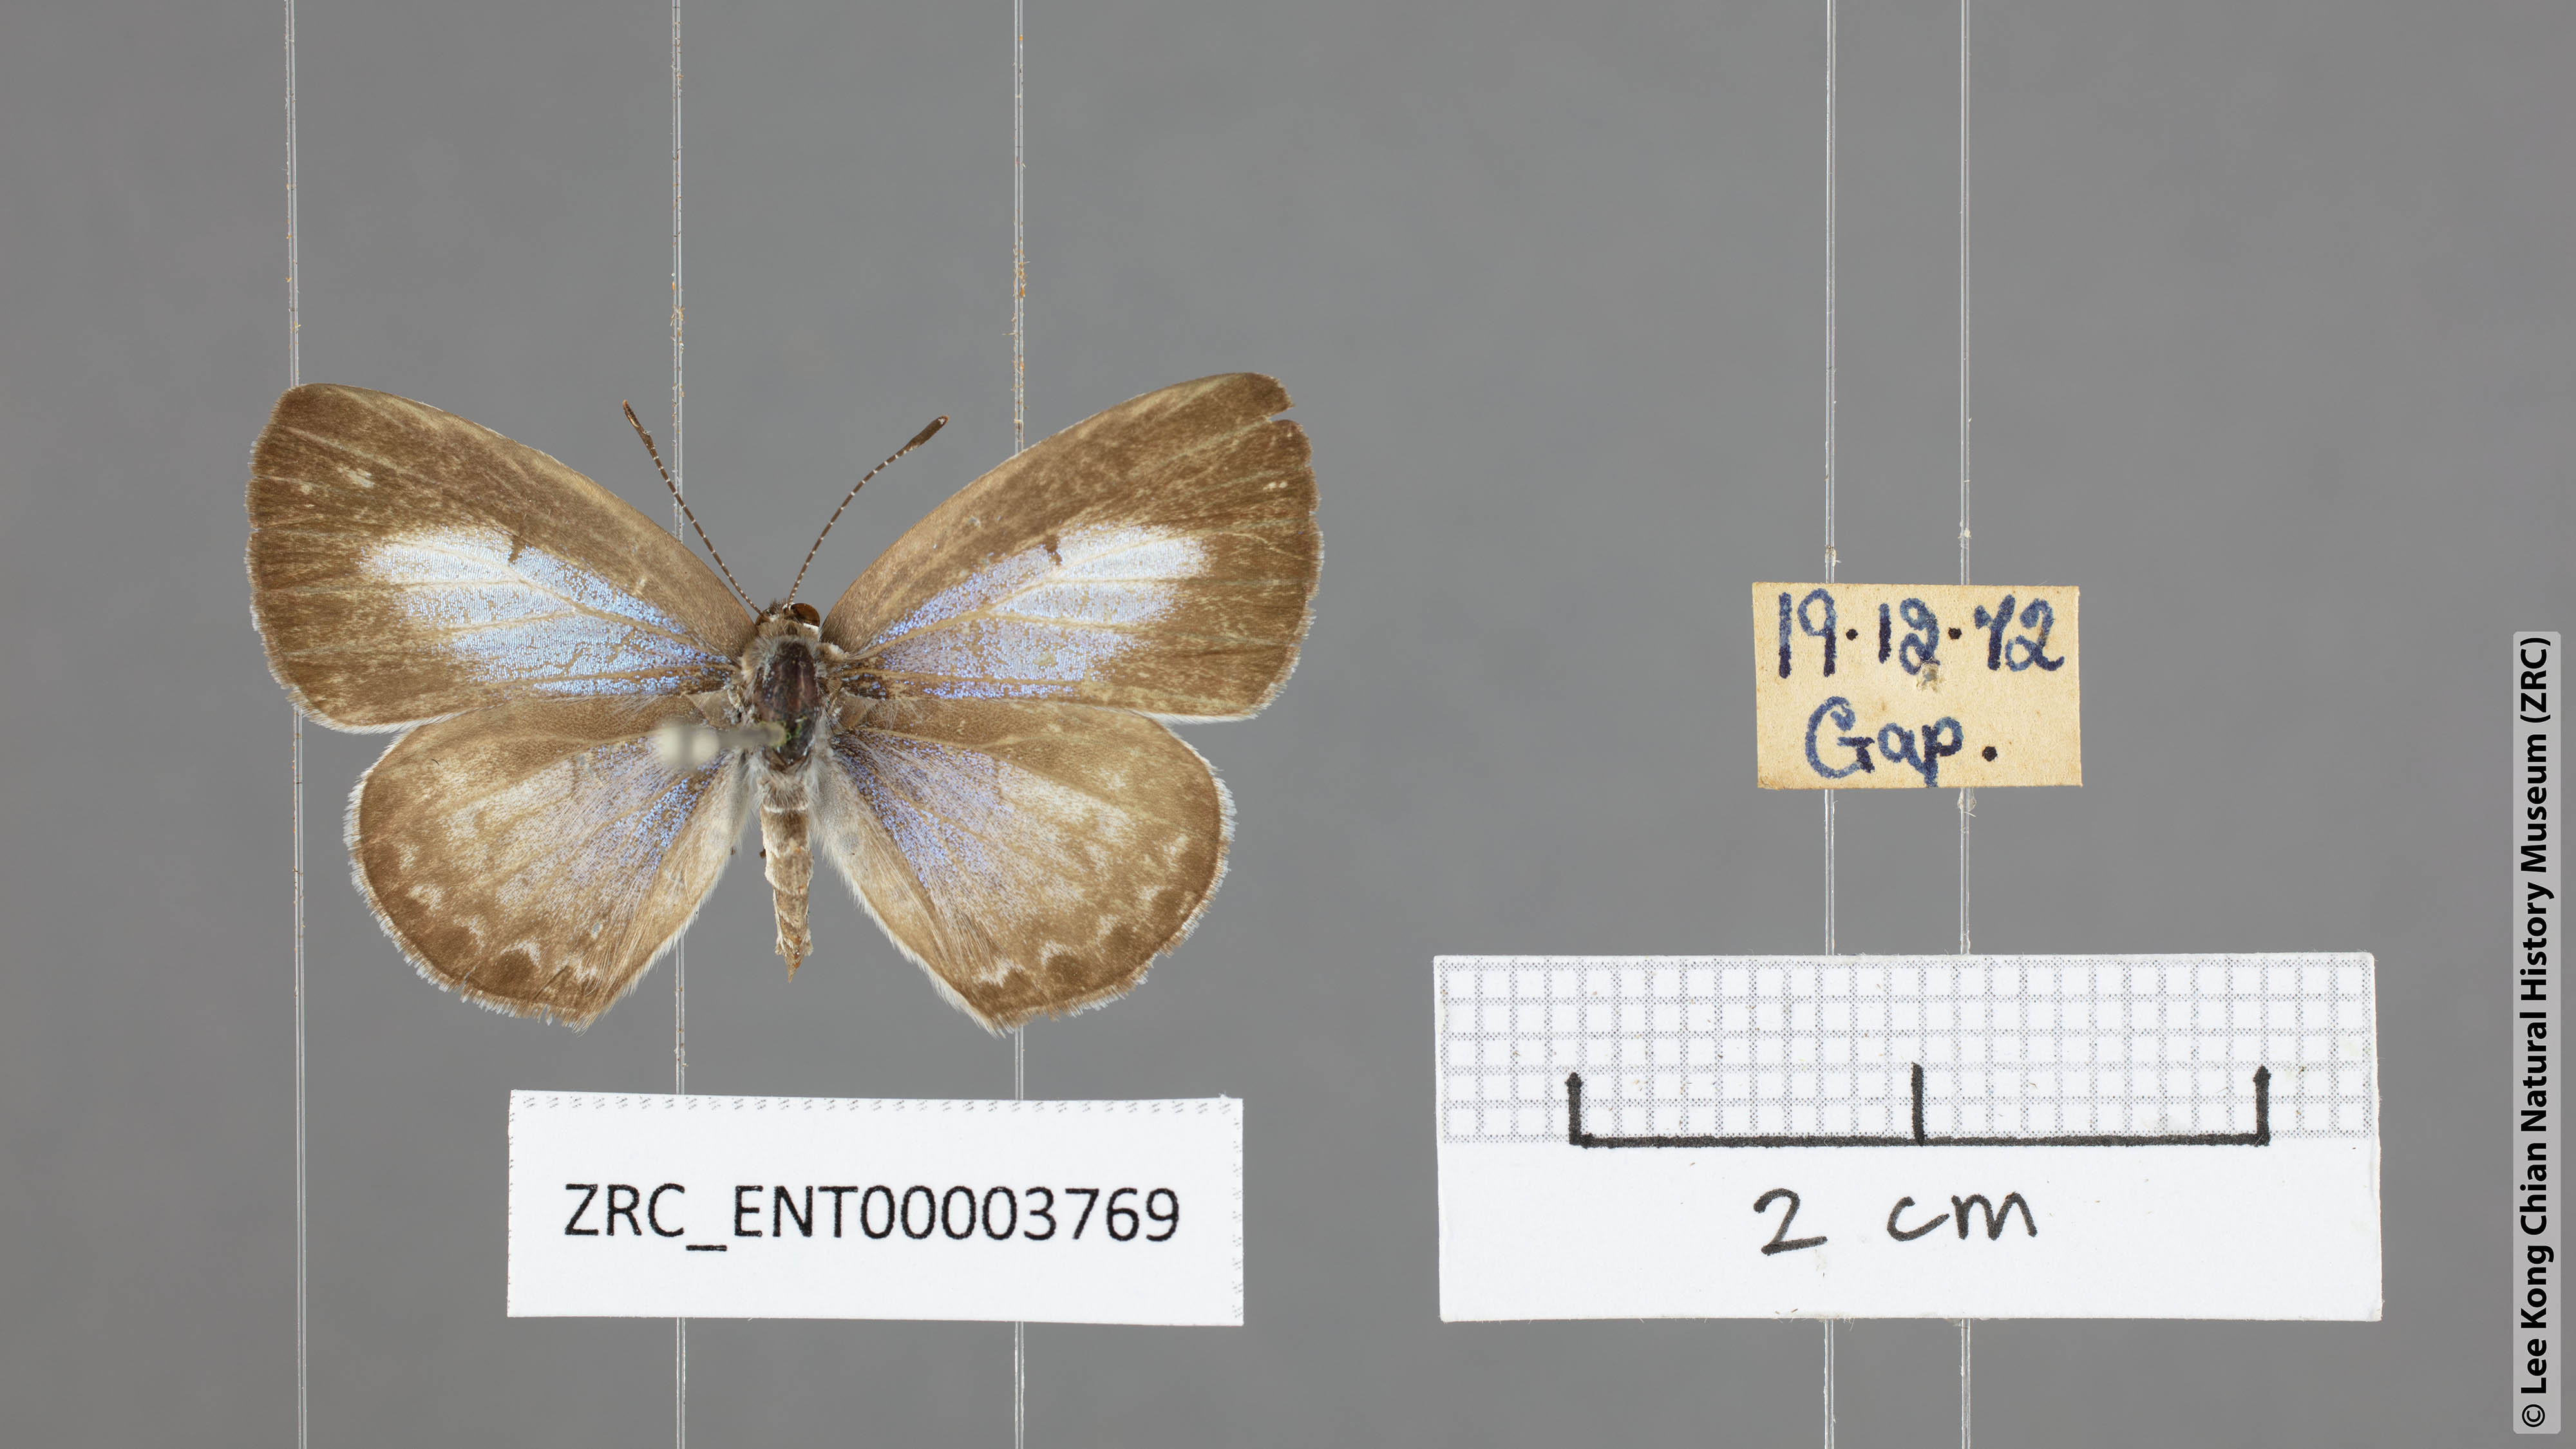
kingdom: Animalia
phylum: Arthropoda
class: Insecta
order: Lepidoptera
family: Lycaenidae
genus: Acytolepis
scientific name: Acytolepis puspa
